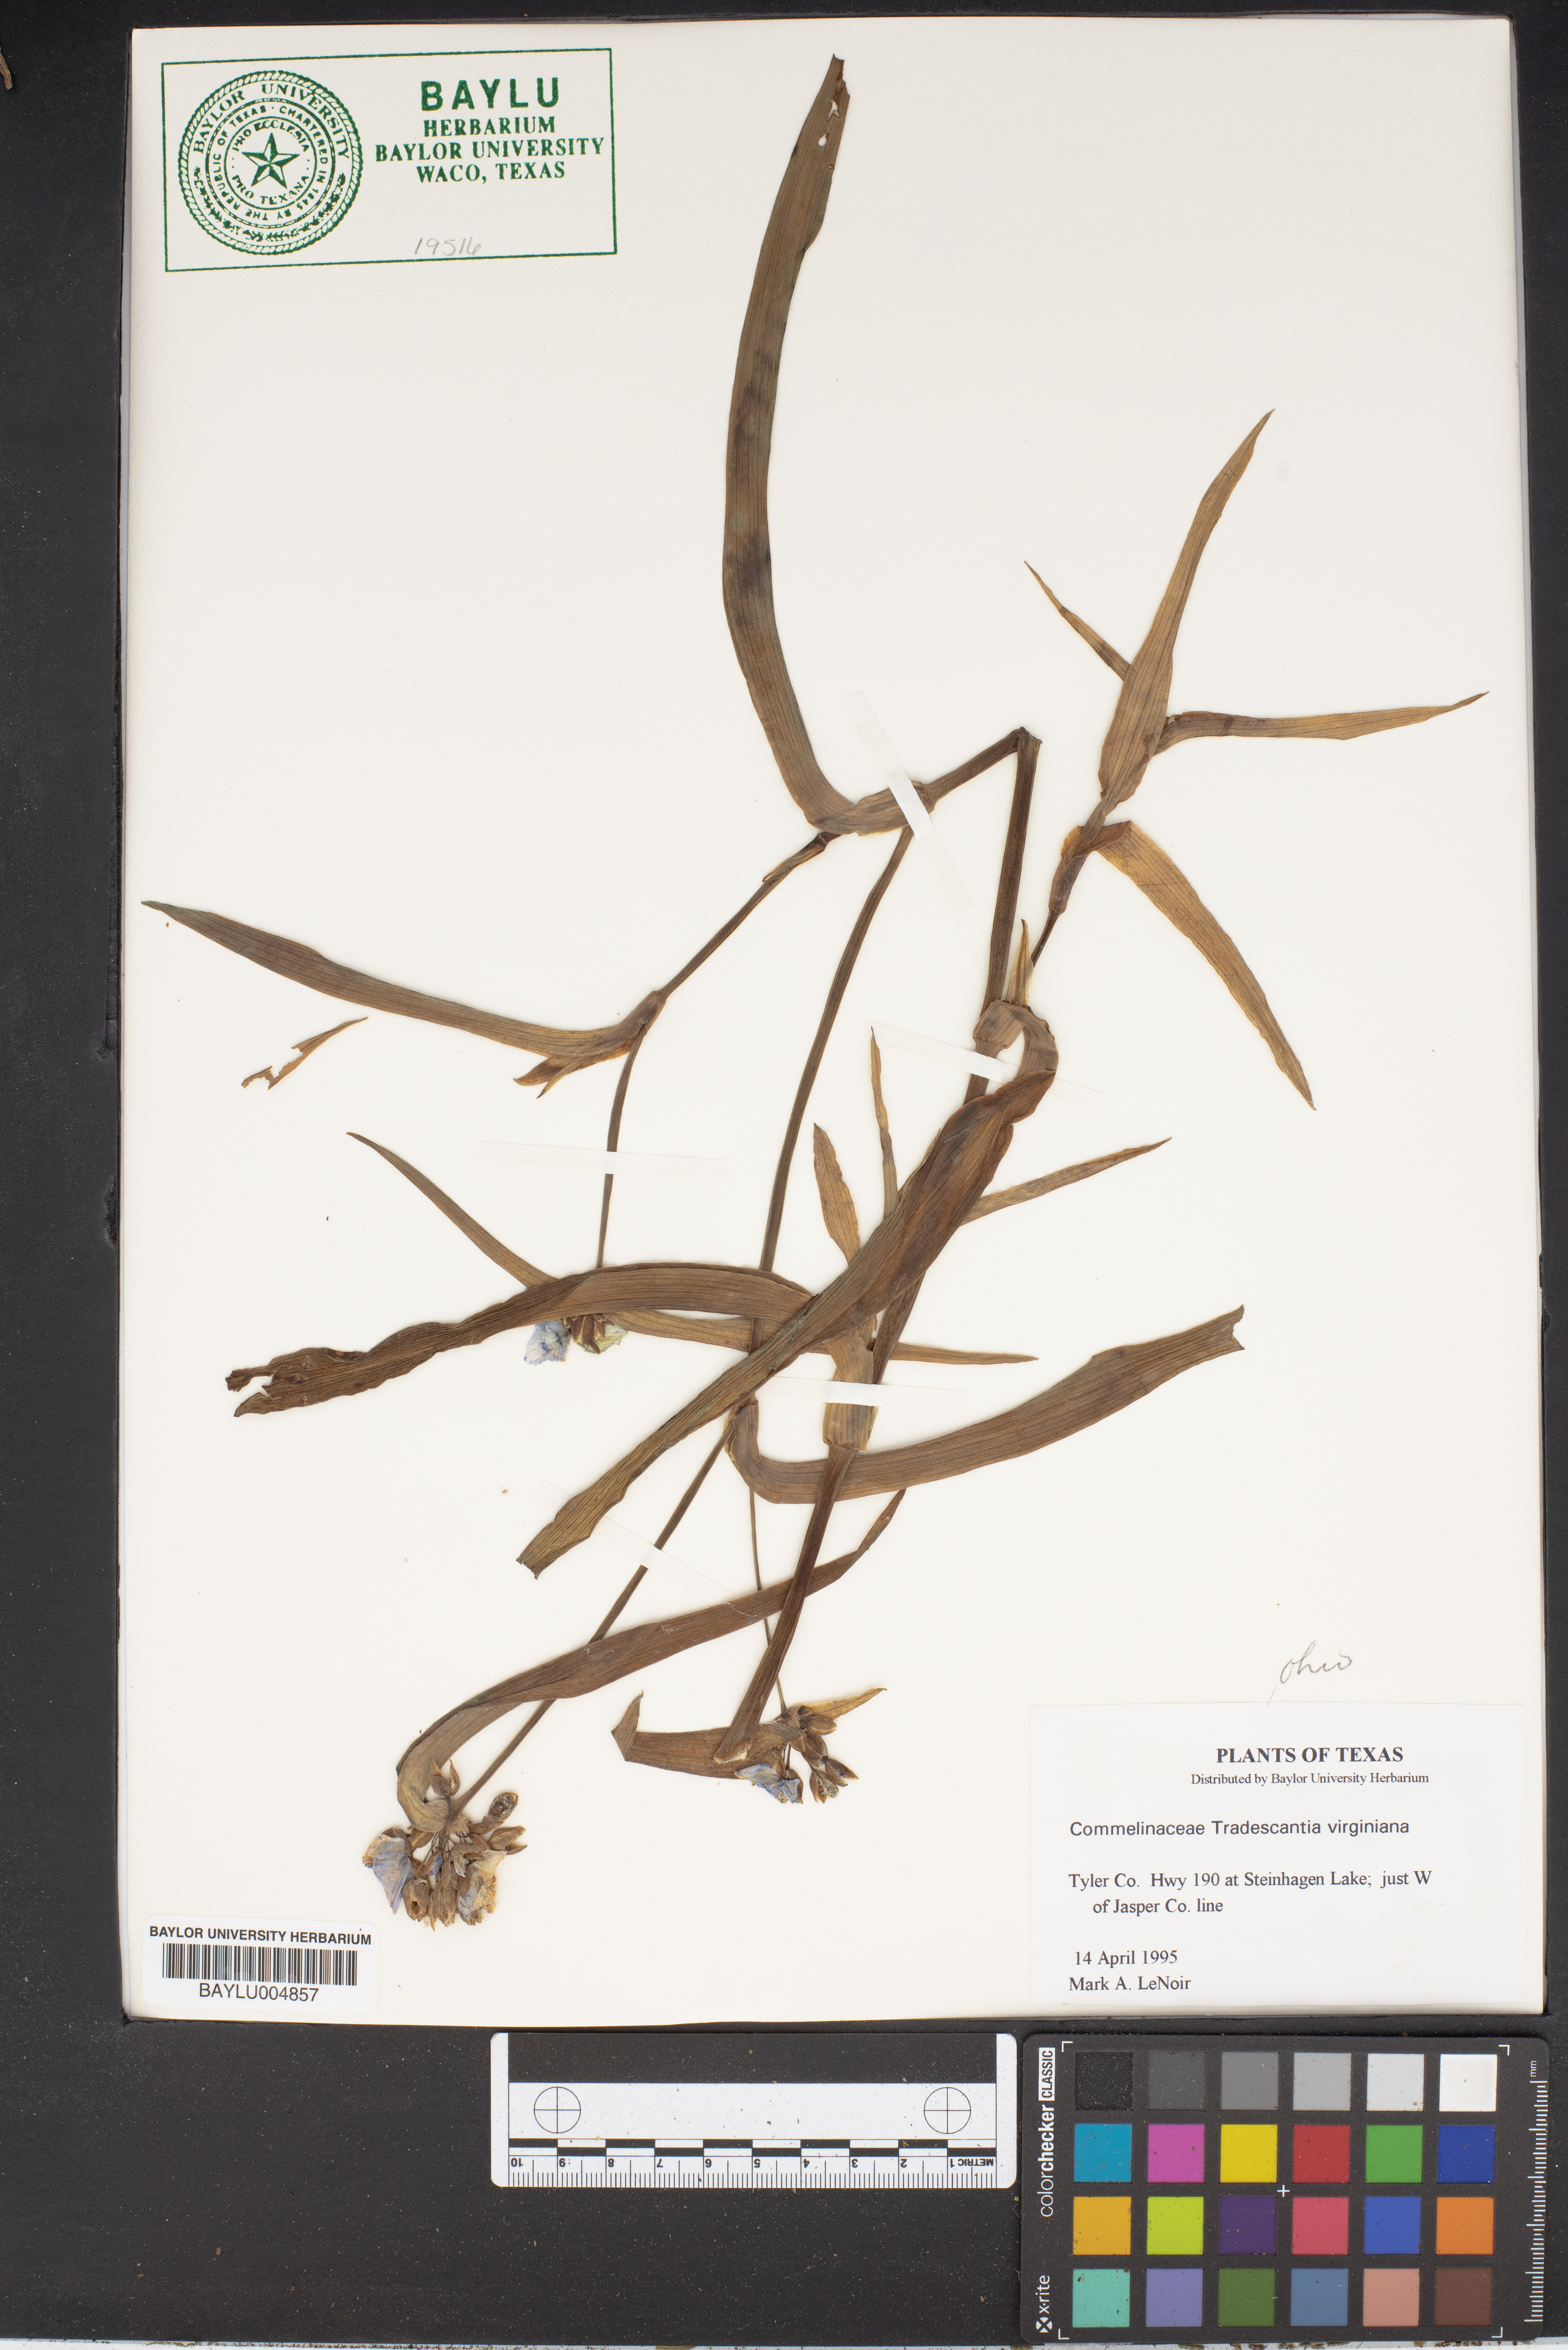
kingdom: Plantae
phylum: Tracheophyta
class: Liliopsida
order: Commelinales
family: Commelinaceae
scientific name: Commelinaceae
